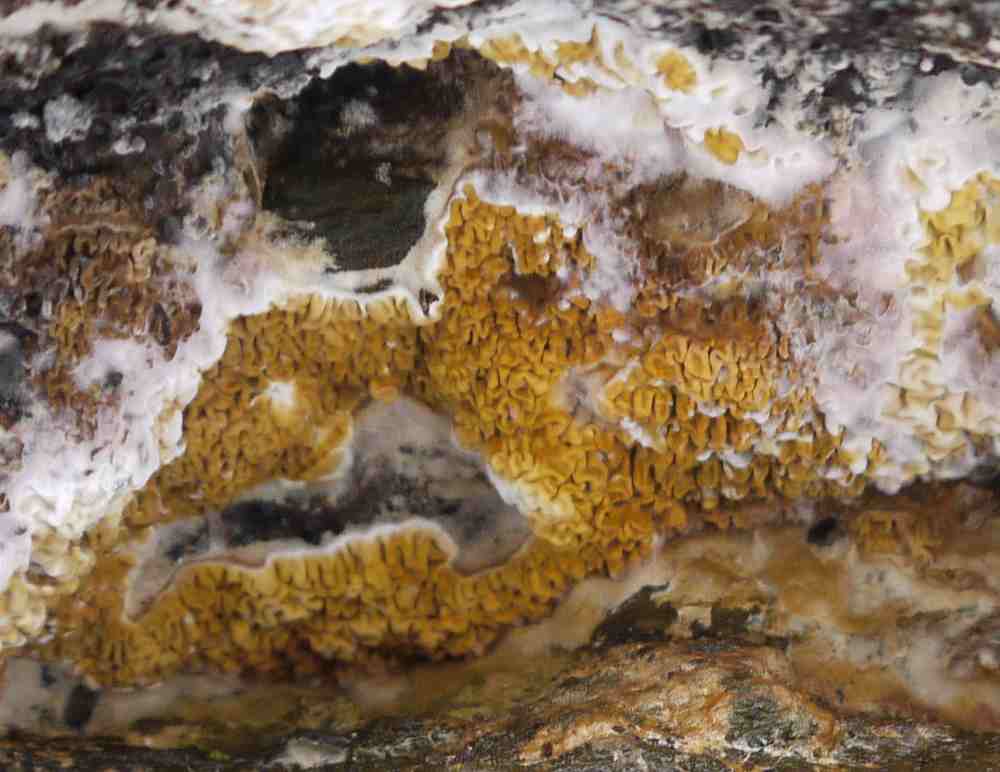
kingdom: Fungi
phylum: Basidiomycota
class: Agaricomycetes
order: Boletales
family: Serpulaceae
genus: Serpula
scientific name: Serpula himantioides
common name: tyndkødet hussvamp
